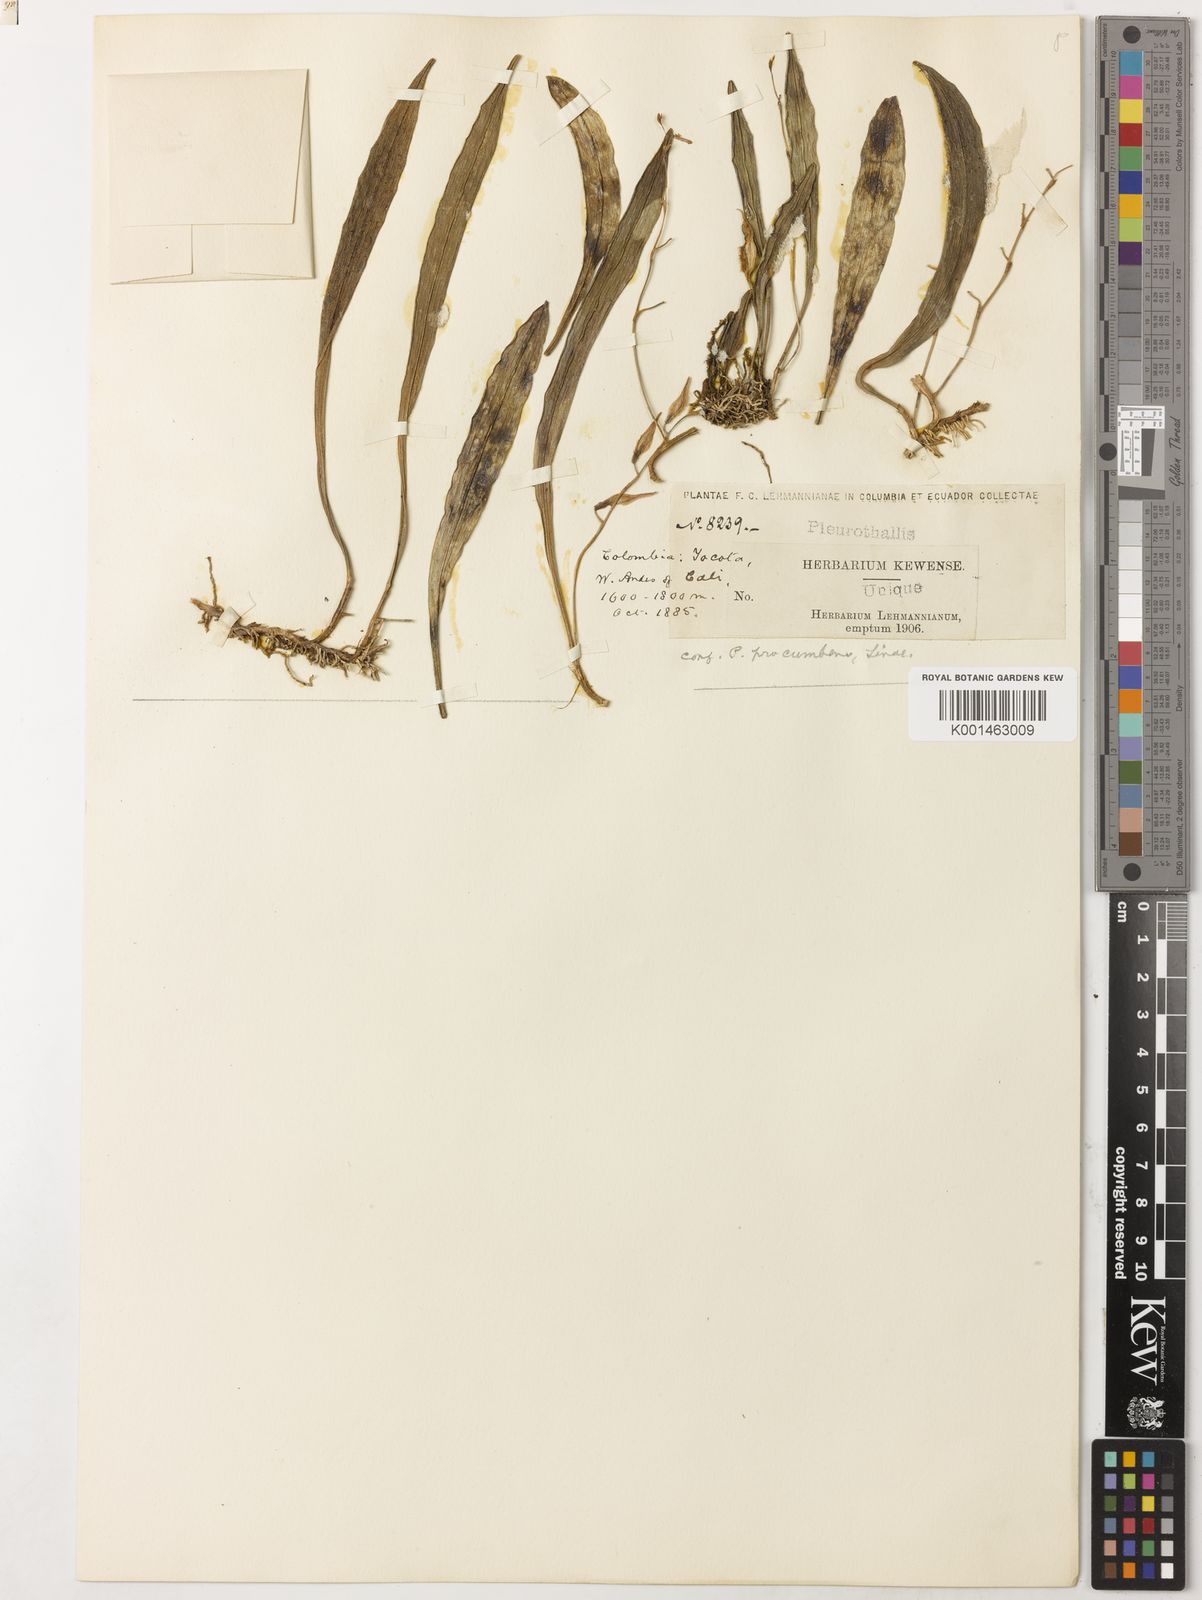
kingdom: Plantae
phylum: Tracheophyta
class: Liliopsida
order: Asparagales
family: Orchidaceae
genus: Pabstiella
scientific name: Pabstiella tripterantha
